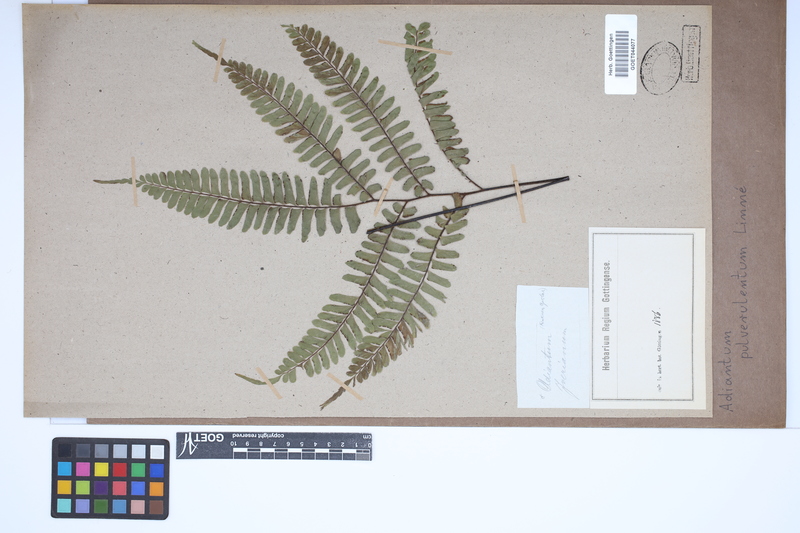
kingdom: Plantae
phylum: Tracheophyta
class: Polypodiopsida
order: Polypodiales
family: Pteridaceae
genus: Adiantum
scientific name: Adiantum pulverulentum
